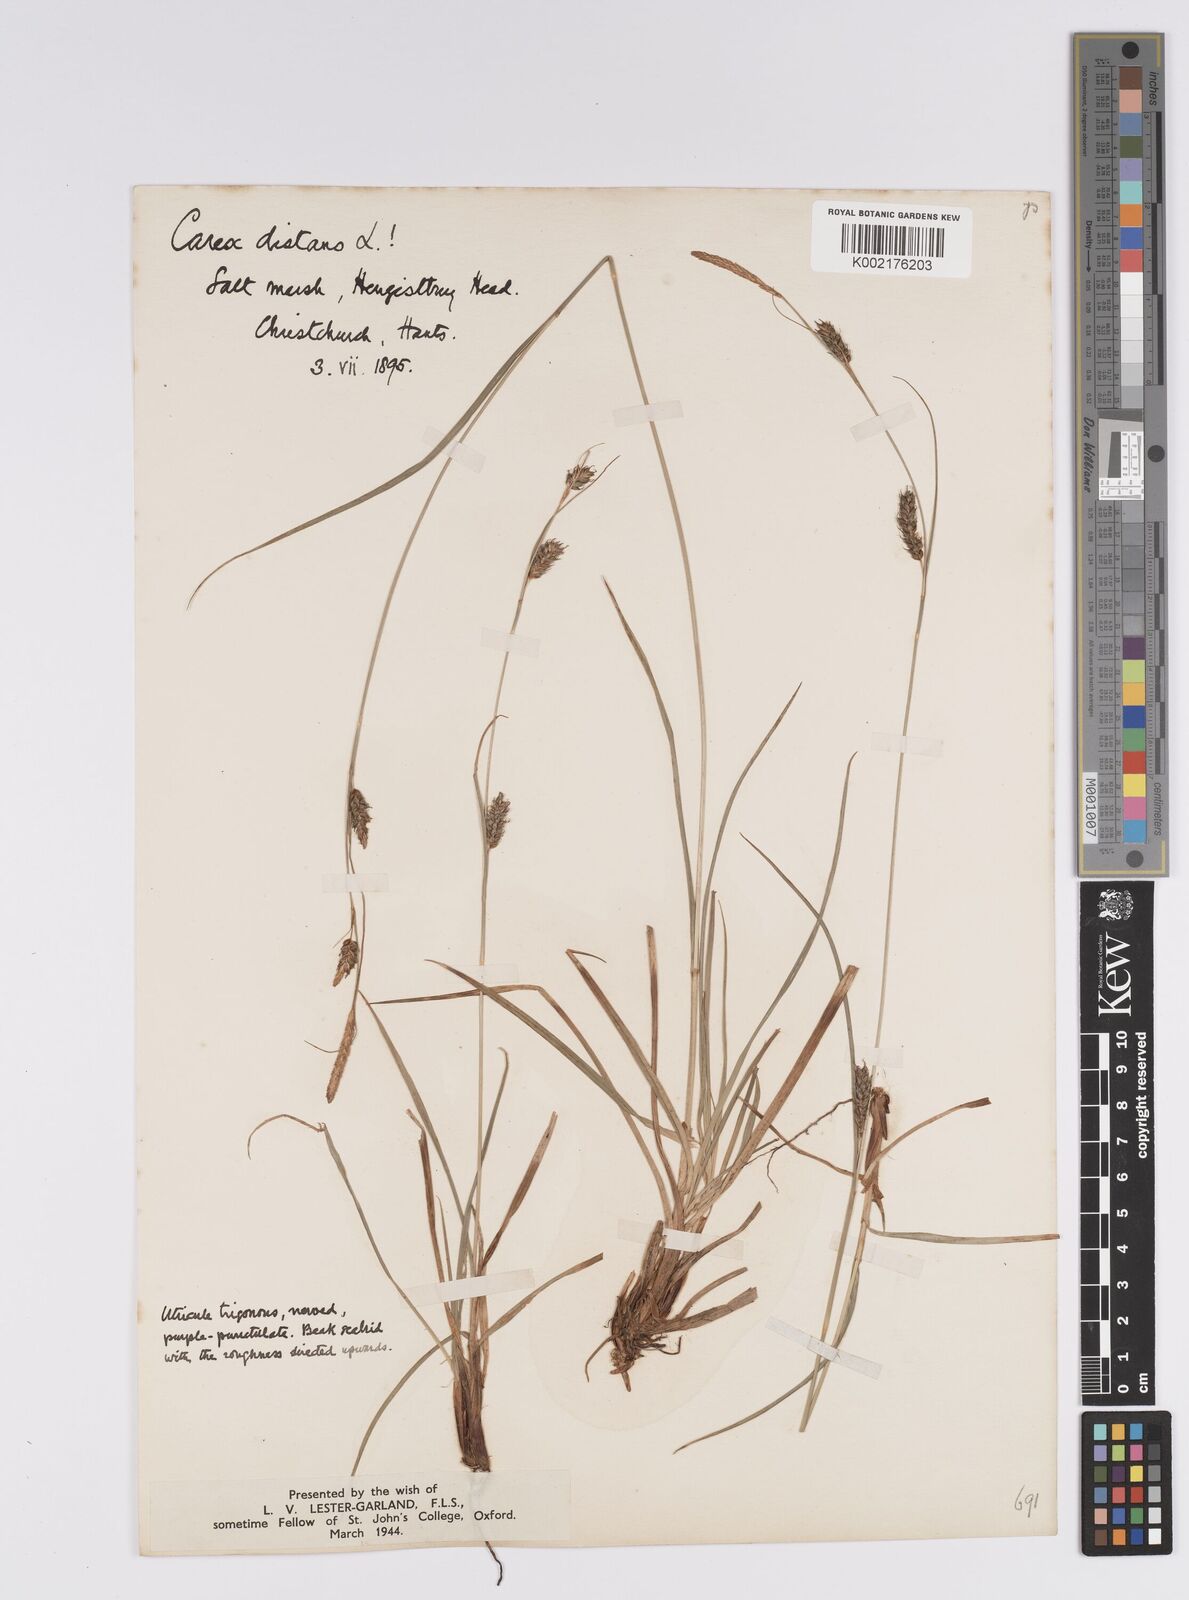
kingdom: Plantae
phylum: Tracheophyta
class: Liliopsida
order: Poales
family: Cyperaceae
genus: Carex
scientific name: Carex distans
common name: Distant sedge
